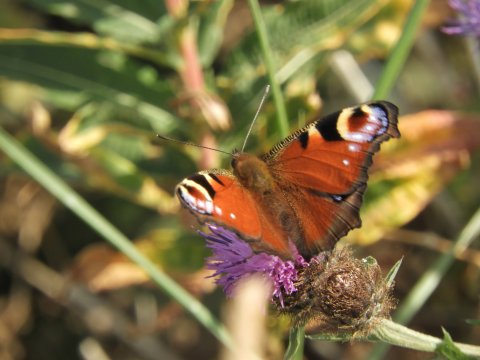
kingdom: Animalia
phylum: Arthropoda
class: Insecta
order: Lepidoptera
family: Nymphalidae
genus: Aglais
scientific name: Aglais io
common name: European Peacock
